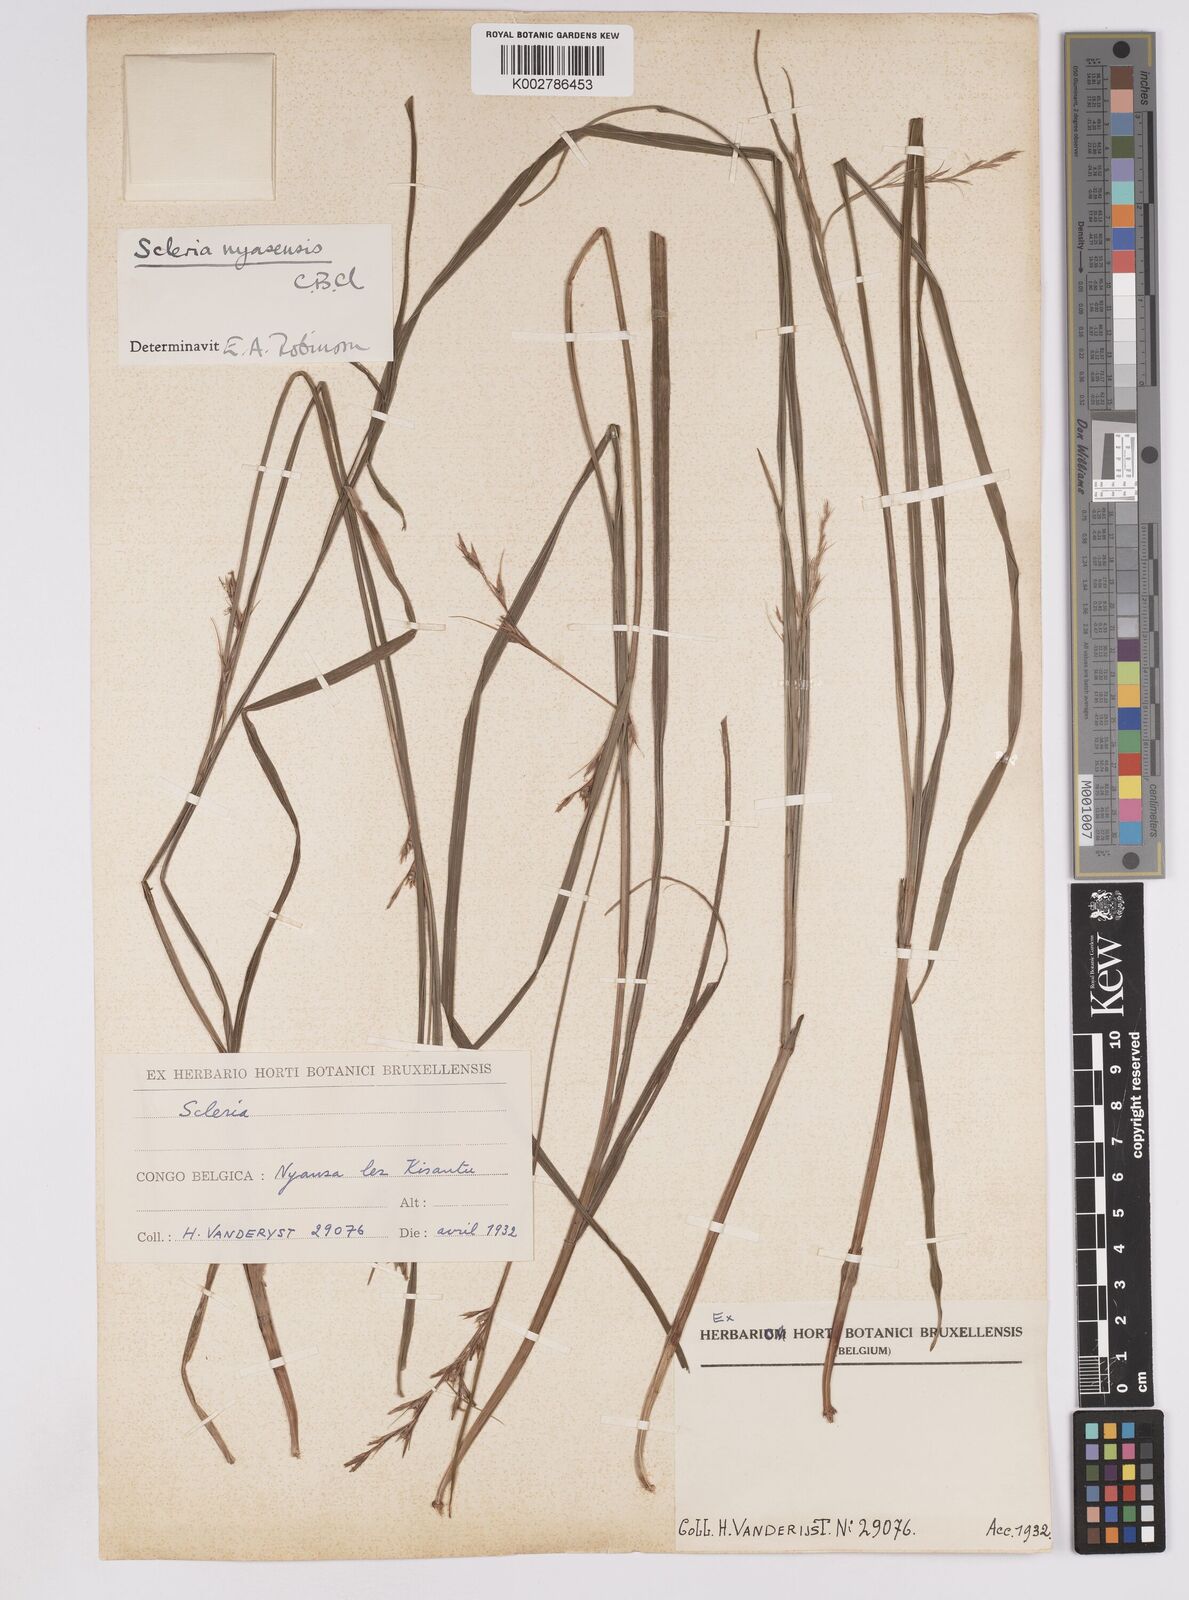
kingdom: Plantae
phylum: Tracheophyta
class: Liliopsida
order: Poales
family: Cyperaceae
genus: Scleria
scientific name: Scleria nyasensis
